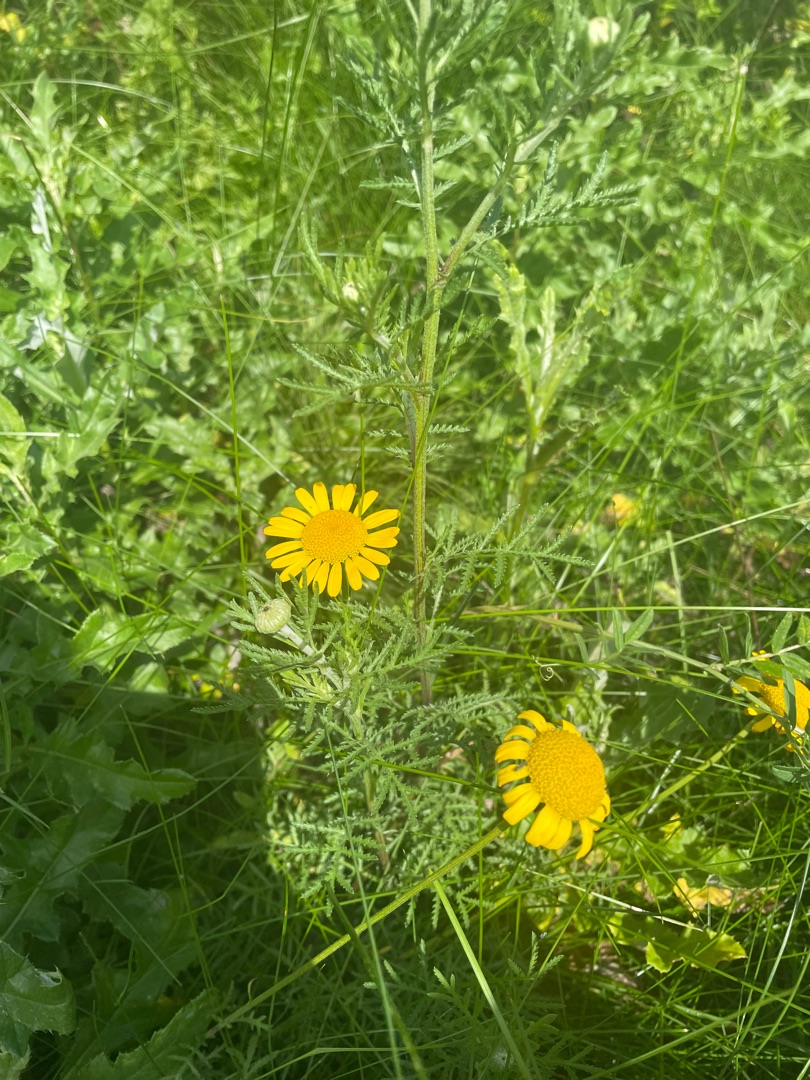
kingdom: Plantae
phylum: Tracheophyta
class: Magnoliopsida
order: Asterales
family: Asteraceae
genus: Cota
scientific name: Cota tinctoria
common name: Farve-gåseurt
